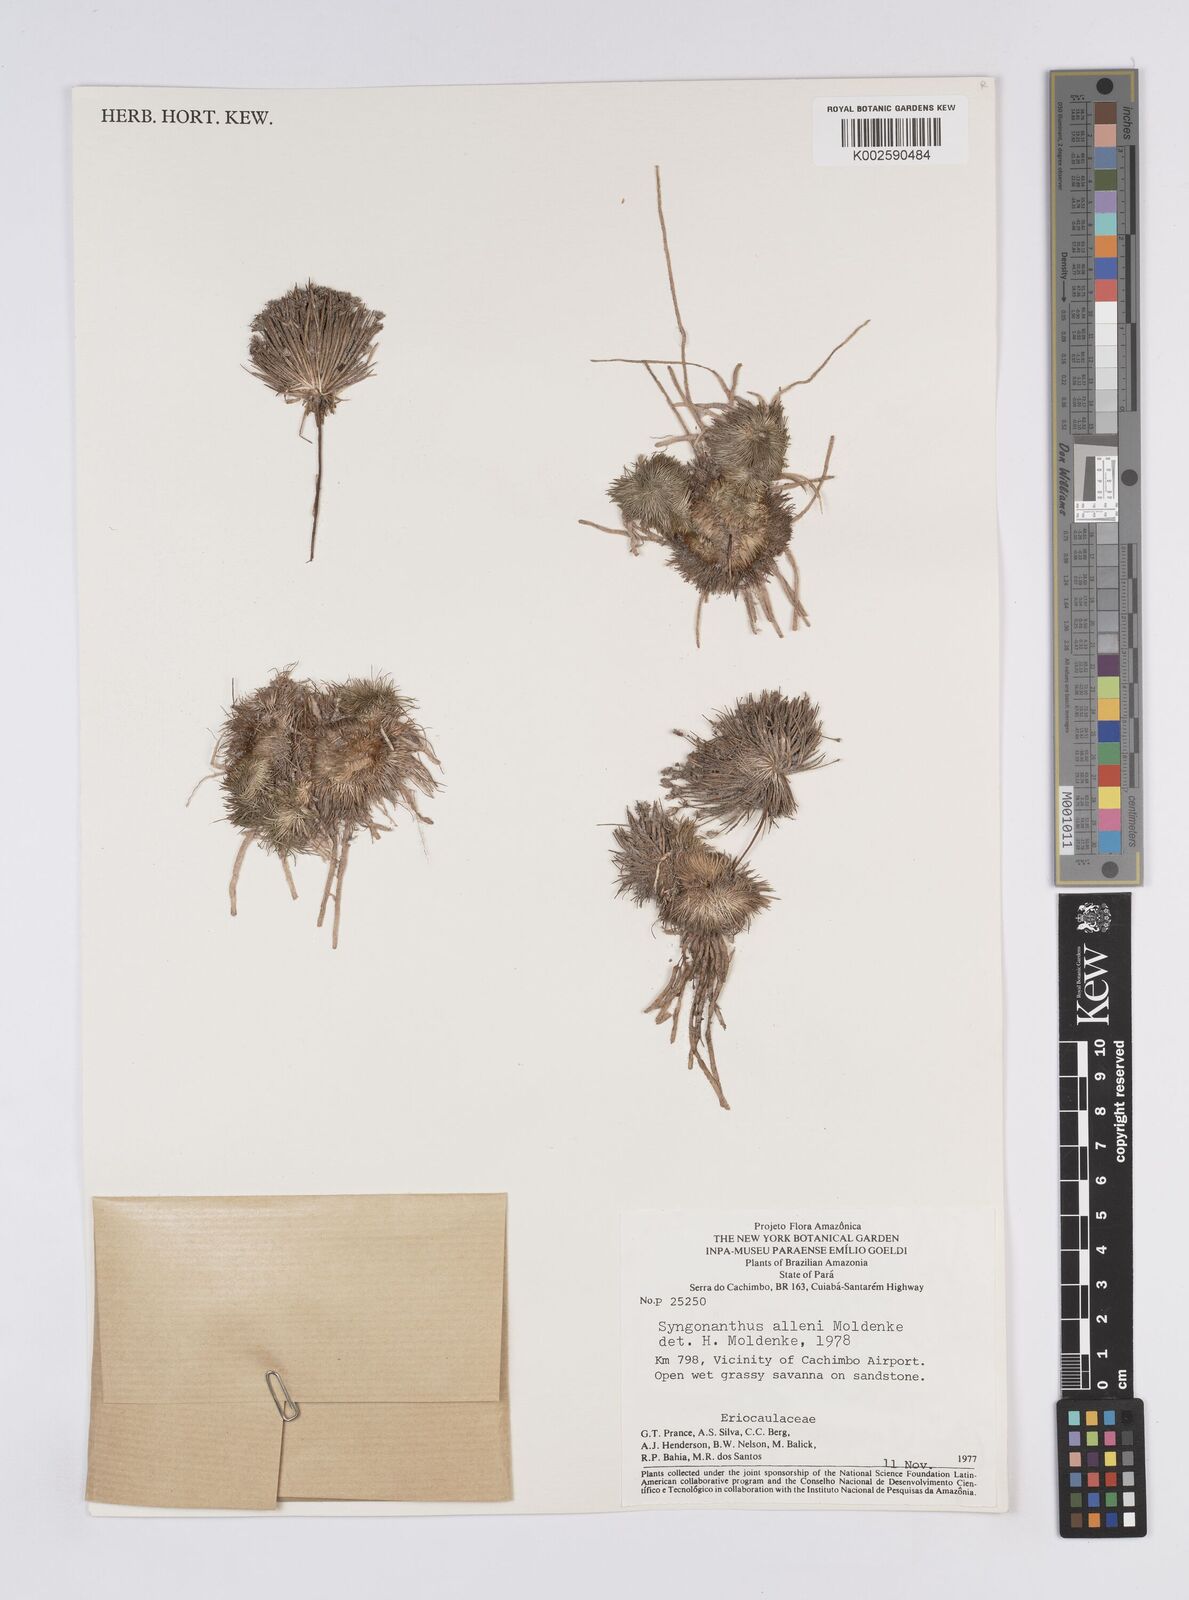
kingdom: Plantae
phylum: Tracheophyta
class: Liliopsida
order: Poales
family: Eriocaulaceae
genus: Syngonanthus
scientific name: Syngonanthus allenii
